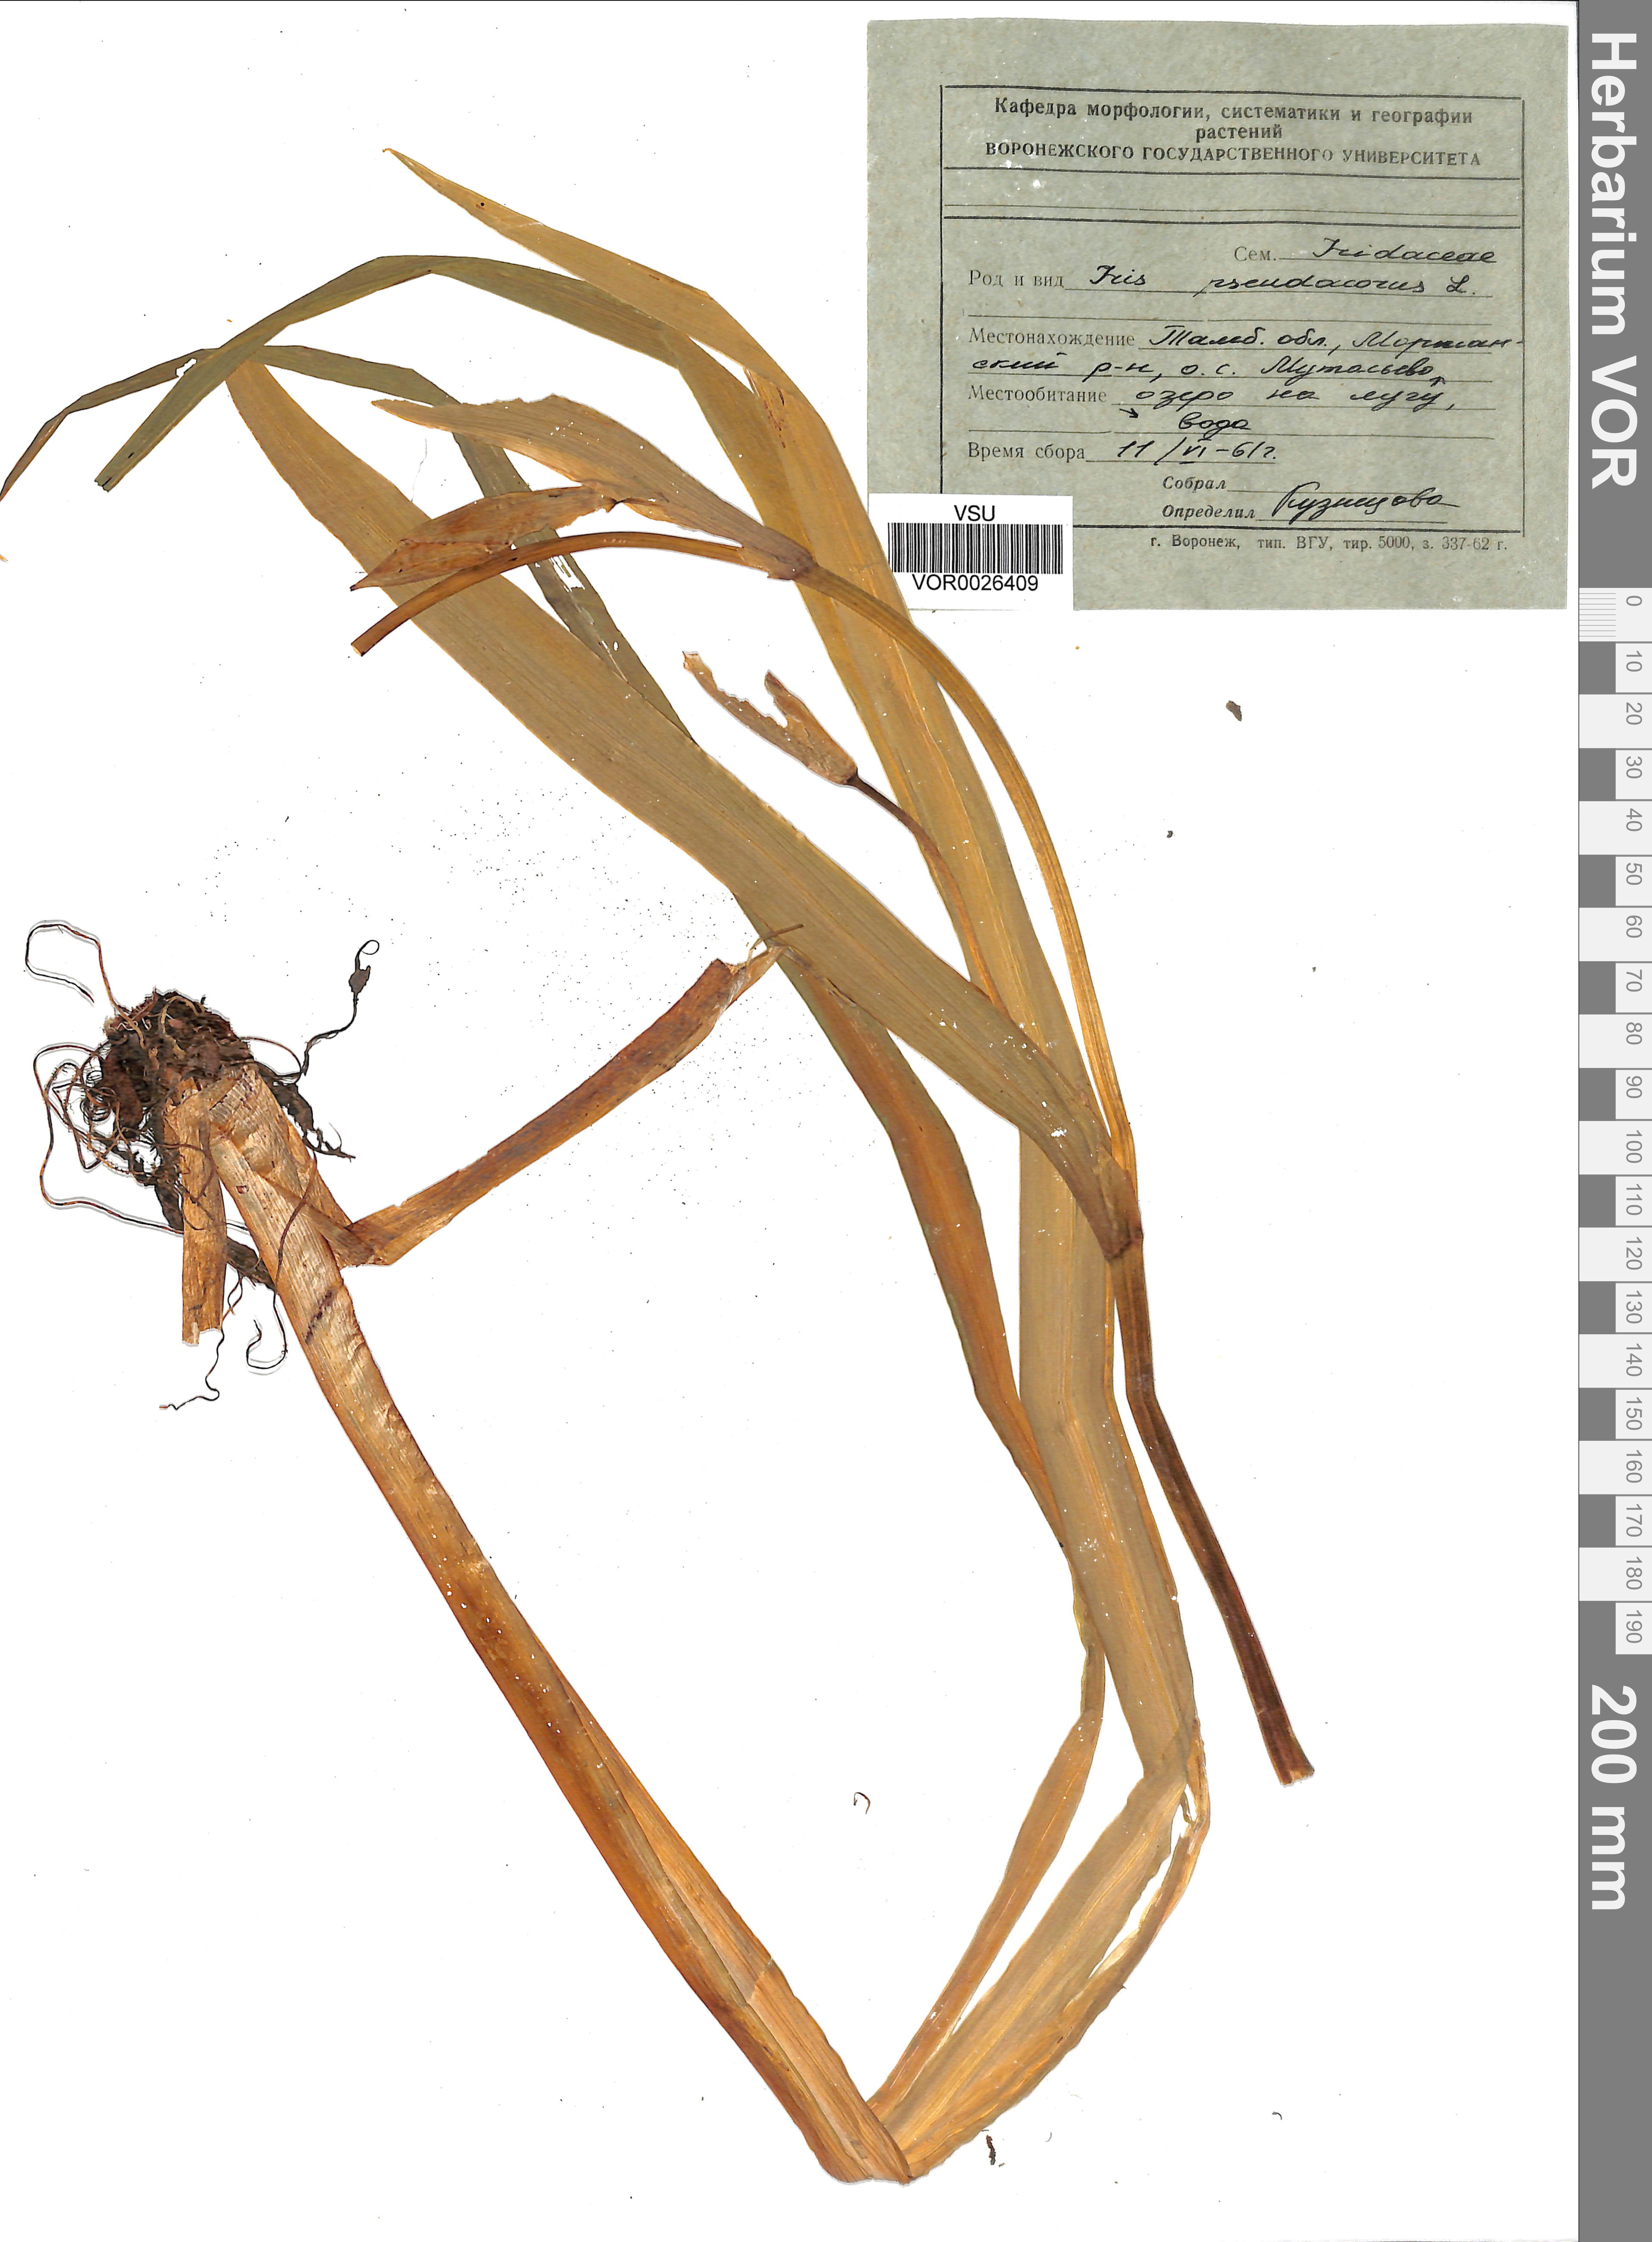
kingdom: Plantae
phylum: Tracheophyta
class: Liliopsida
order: Asparagales
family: Iridaceae
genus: Iris
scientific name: Iris pseudacorus
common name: Yellow flag
